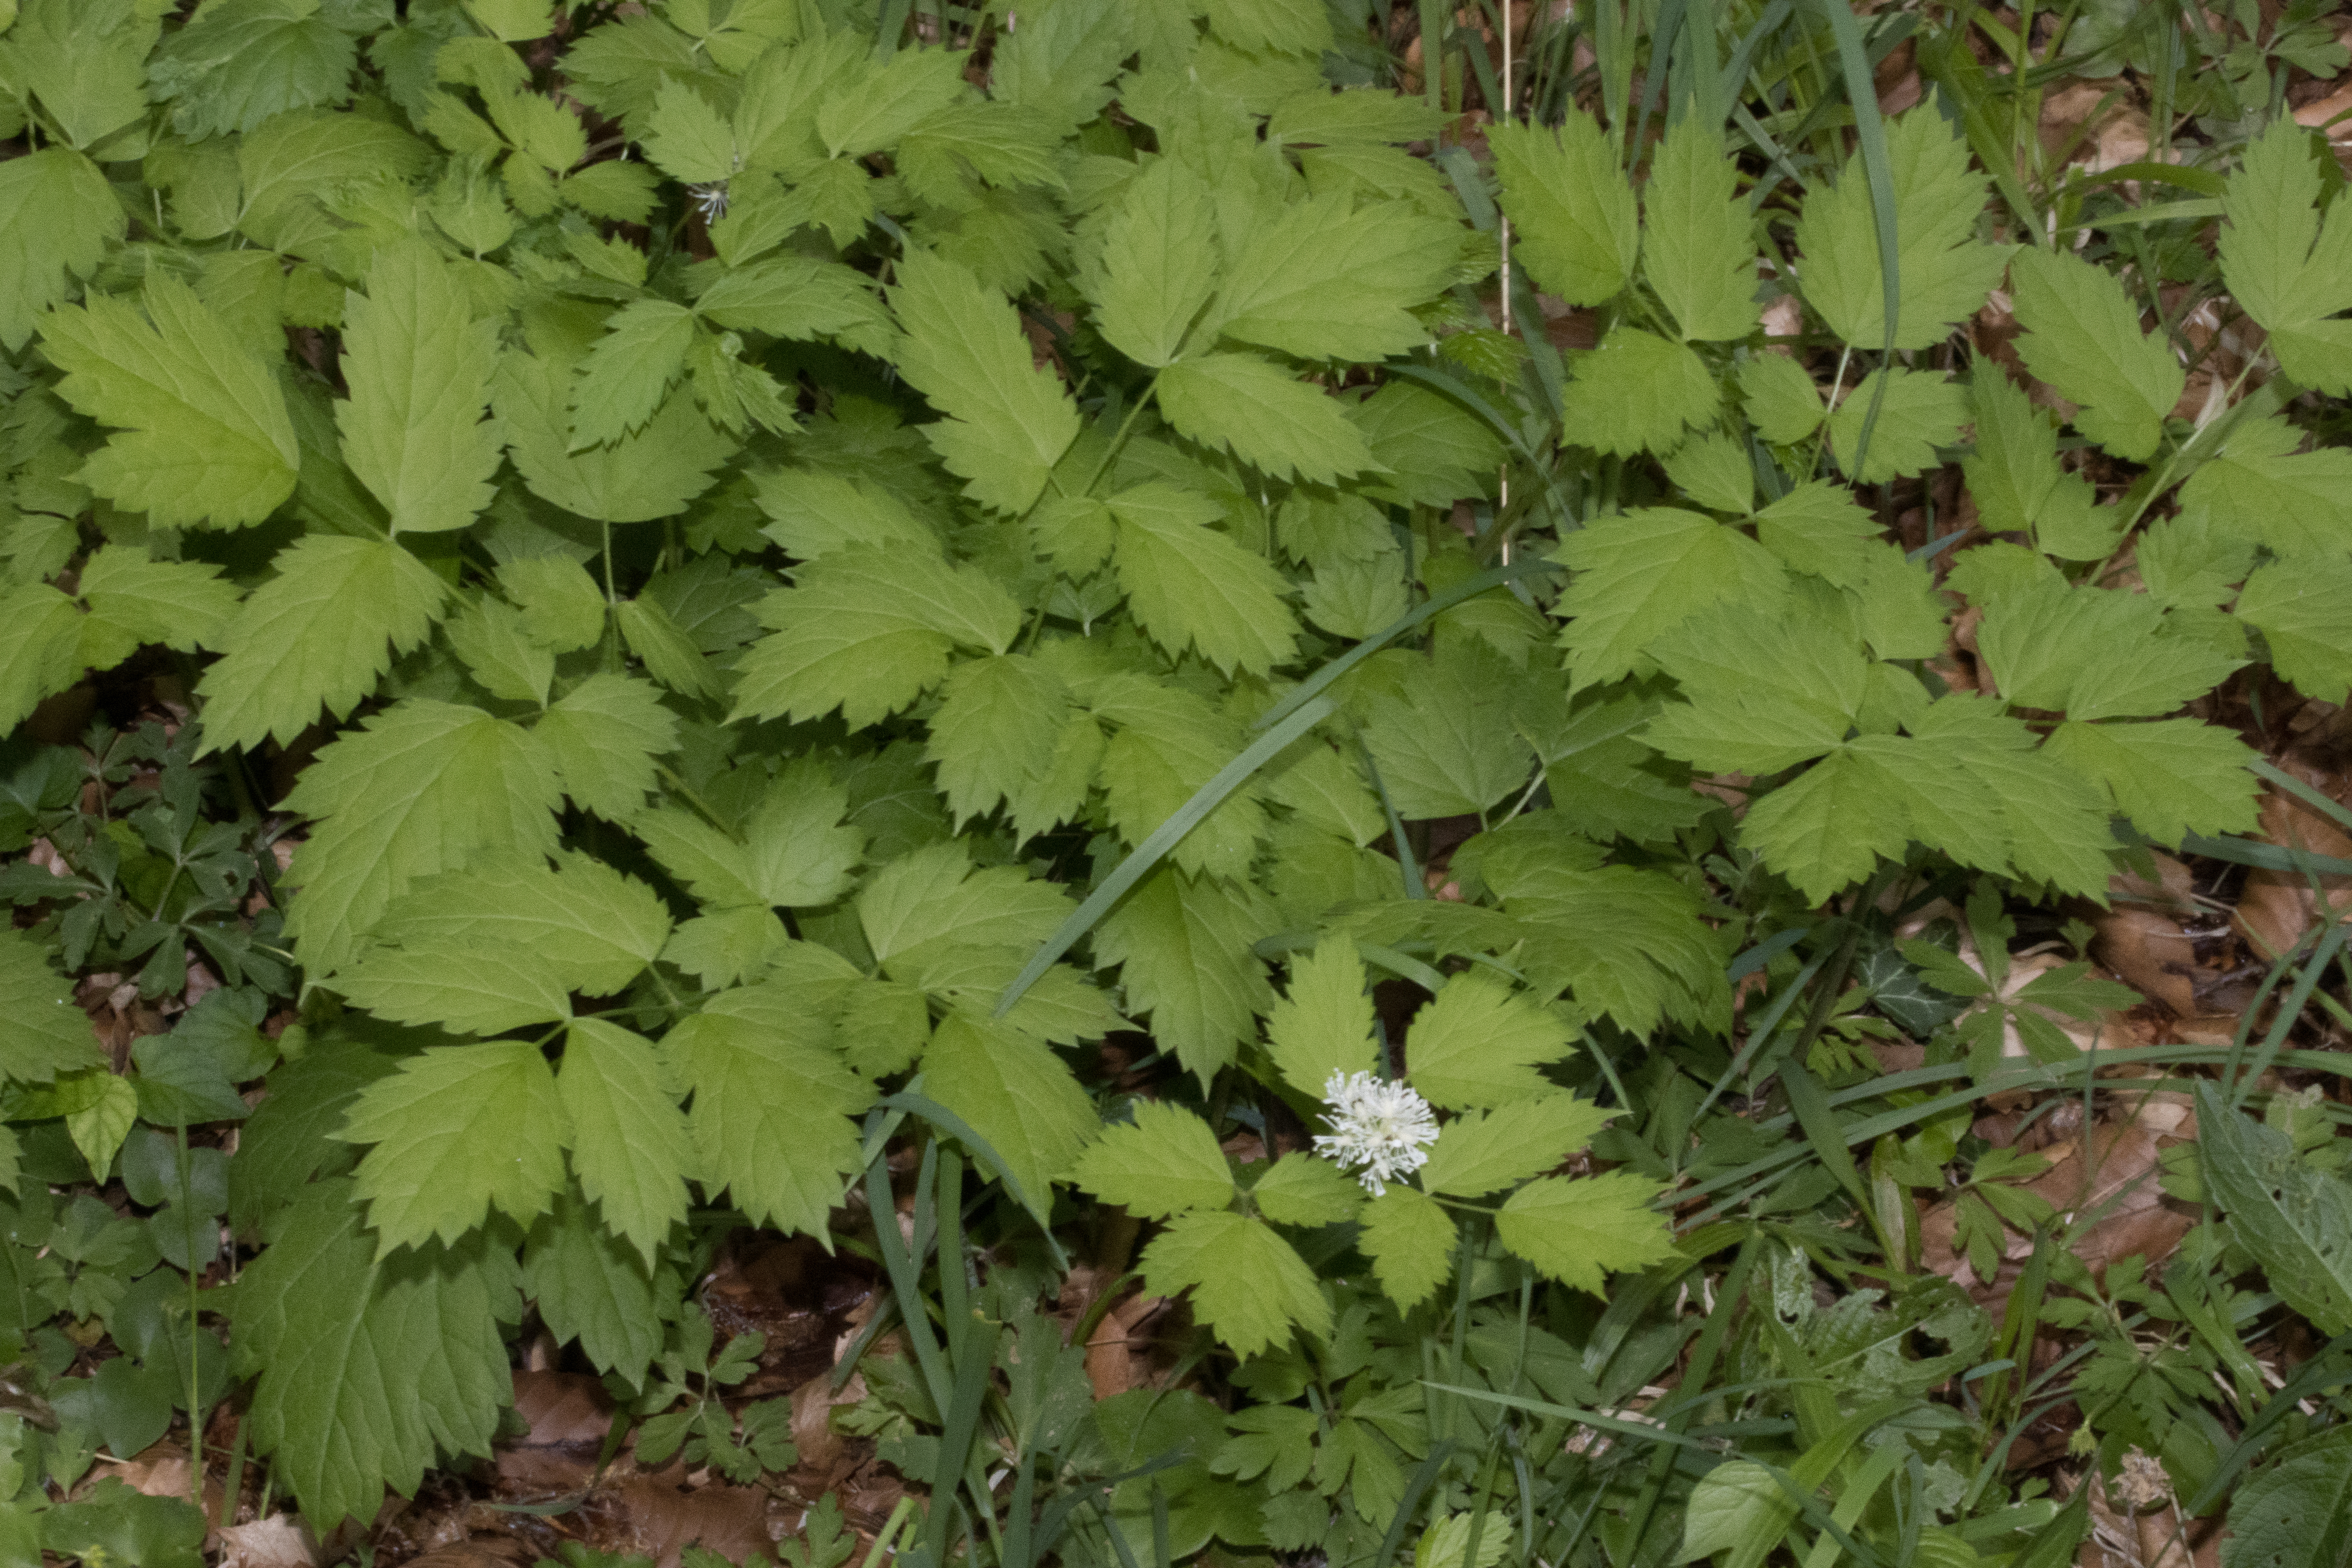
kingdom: Plantae
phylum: Tracheophyta
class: Magnoliopsida
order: Ranunculales
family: Ranunculaceae
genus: Actaea
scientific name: Actaea spicata
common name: Druemunke
